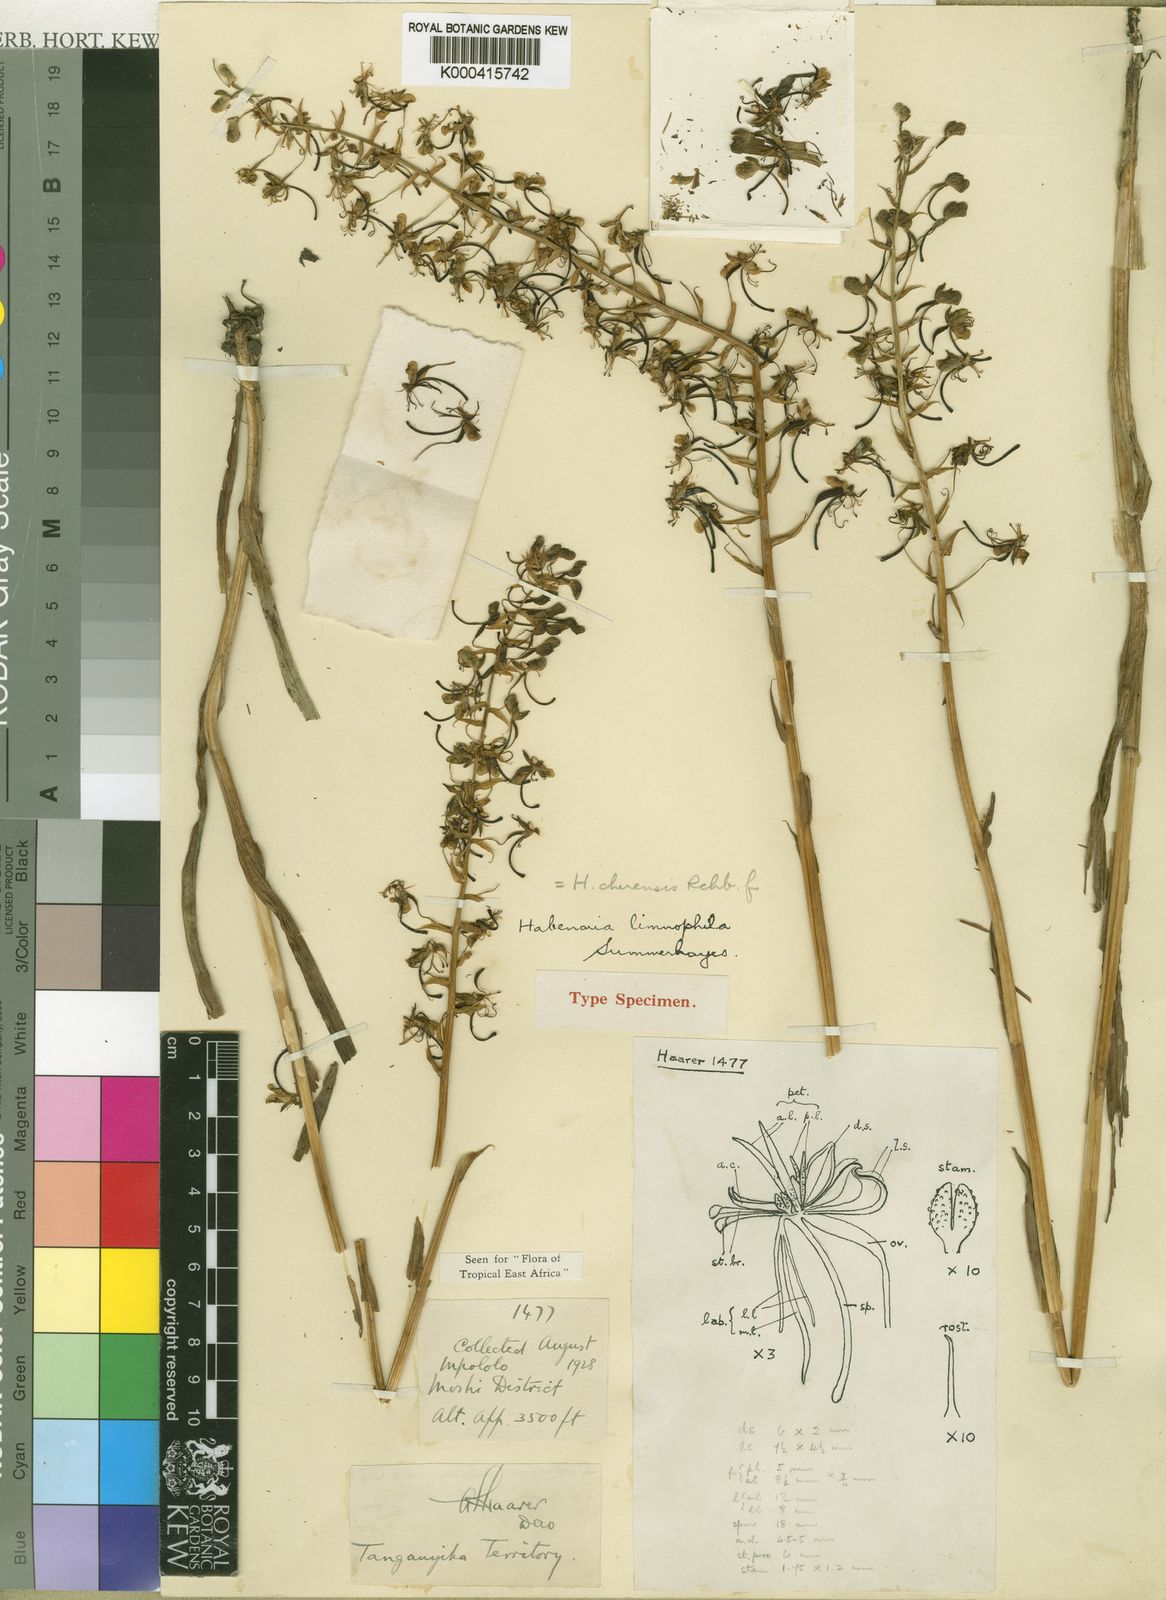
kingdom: Plantae
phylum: Tracheophyta
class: Liliopsida
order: Asparagales
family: Orchidaceae
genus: Habenaria
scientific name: Habenaria chirensis
